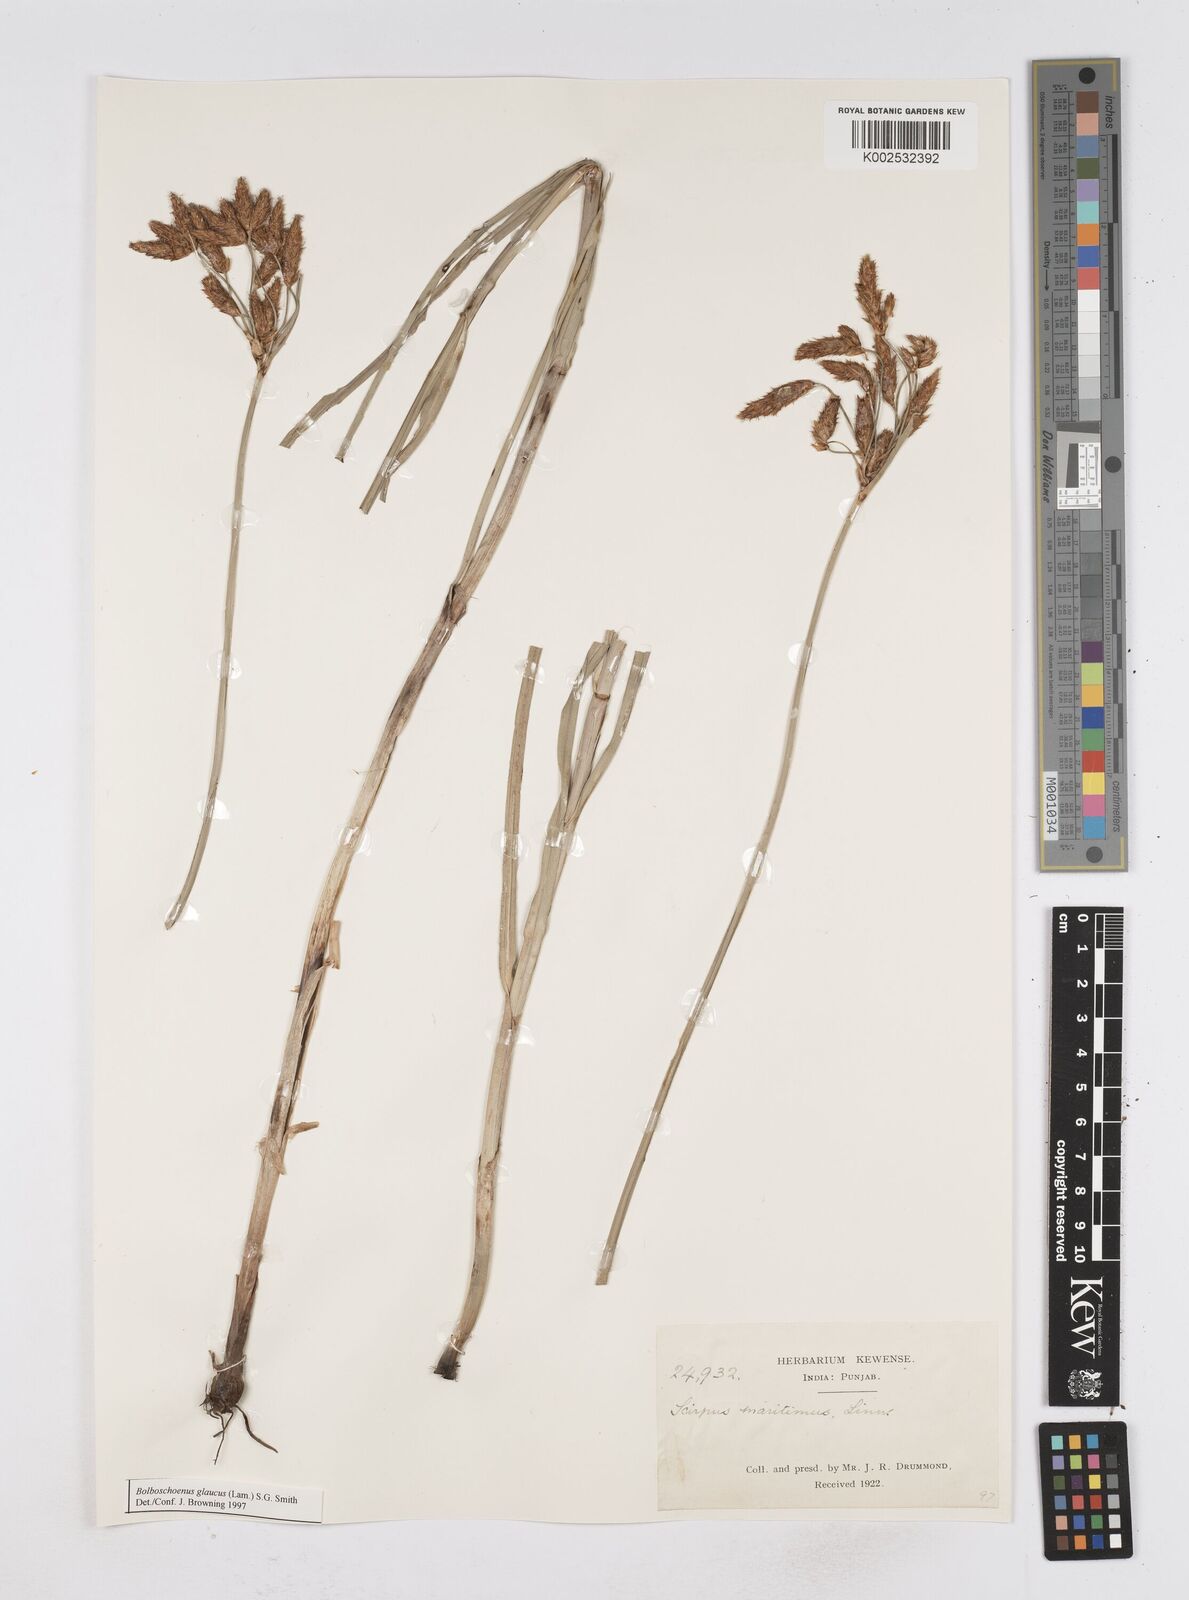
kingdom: Plantae
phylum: Tracheophyta
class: Liliopsida
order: Poales
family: Cyperaceae
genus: Bolboschoenus
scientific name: Bolboschoenus maritimus
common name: Sea club-rush
